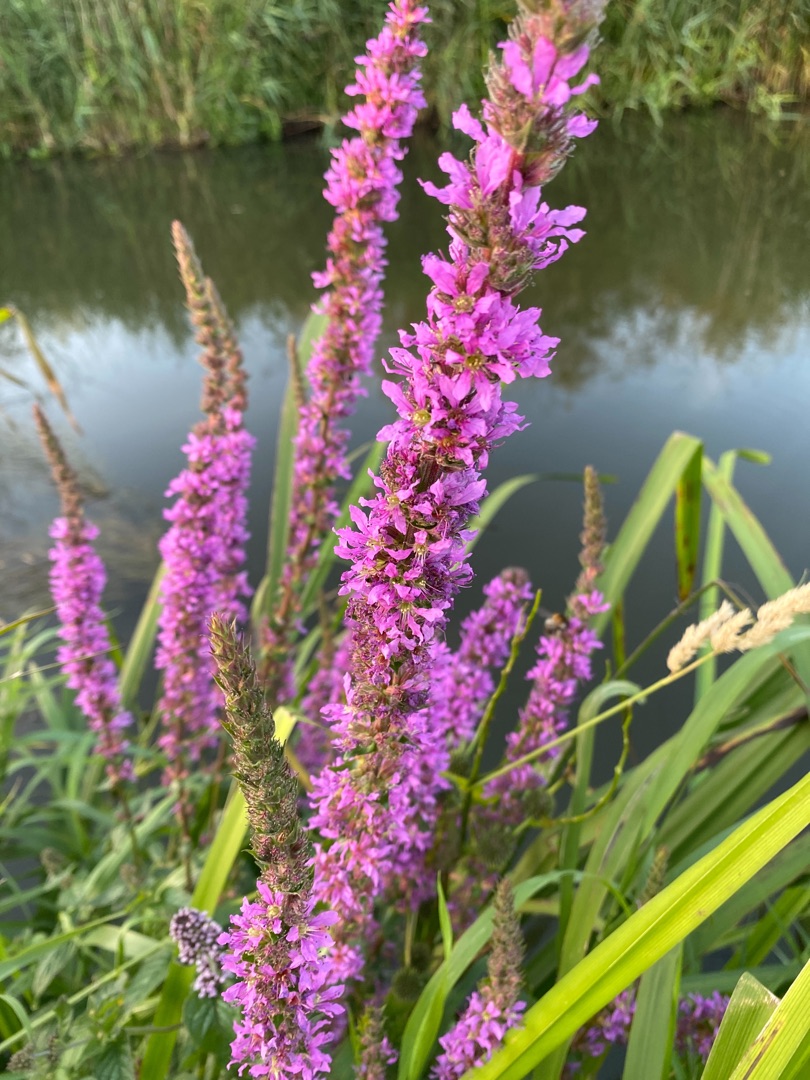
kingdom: Plantae
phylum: Tracheophyta
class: Magnoliopsida
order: Myrtales
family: Lythraceae
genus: Lythrum
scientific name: Lythrum salicaria
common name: Kattehale
